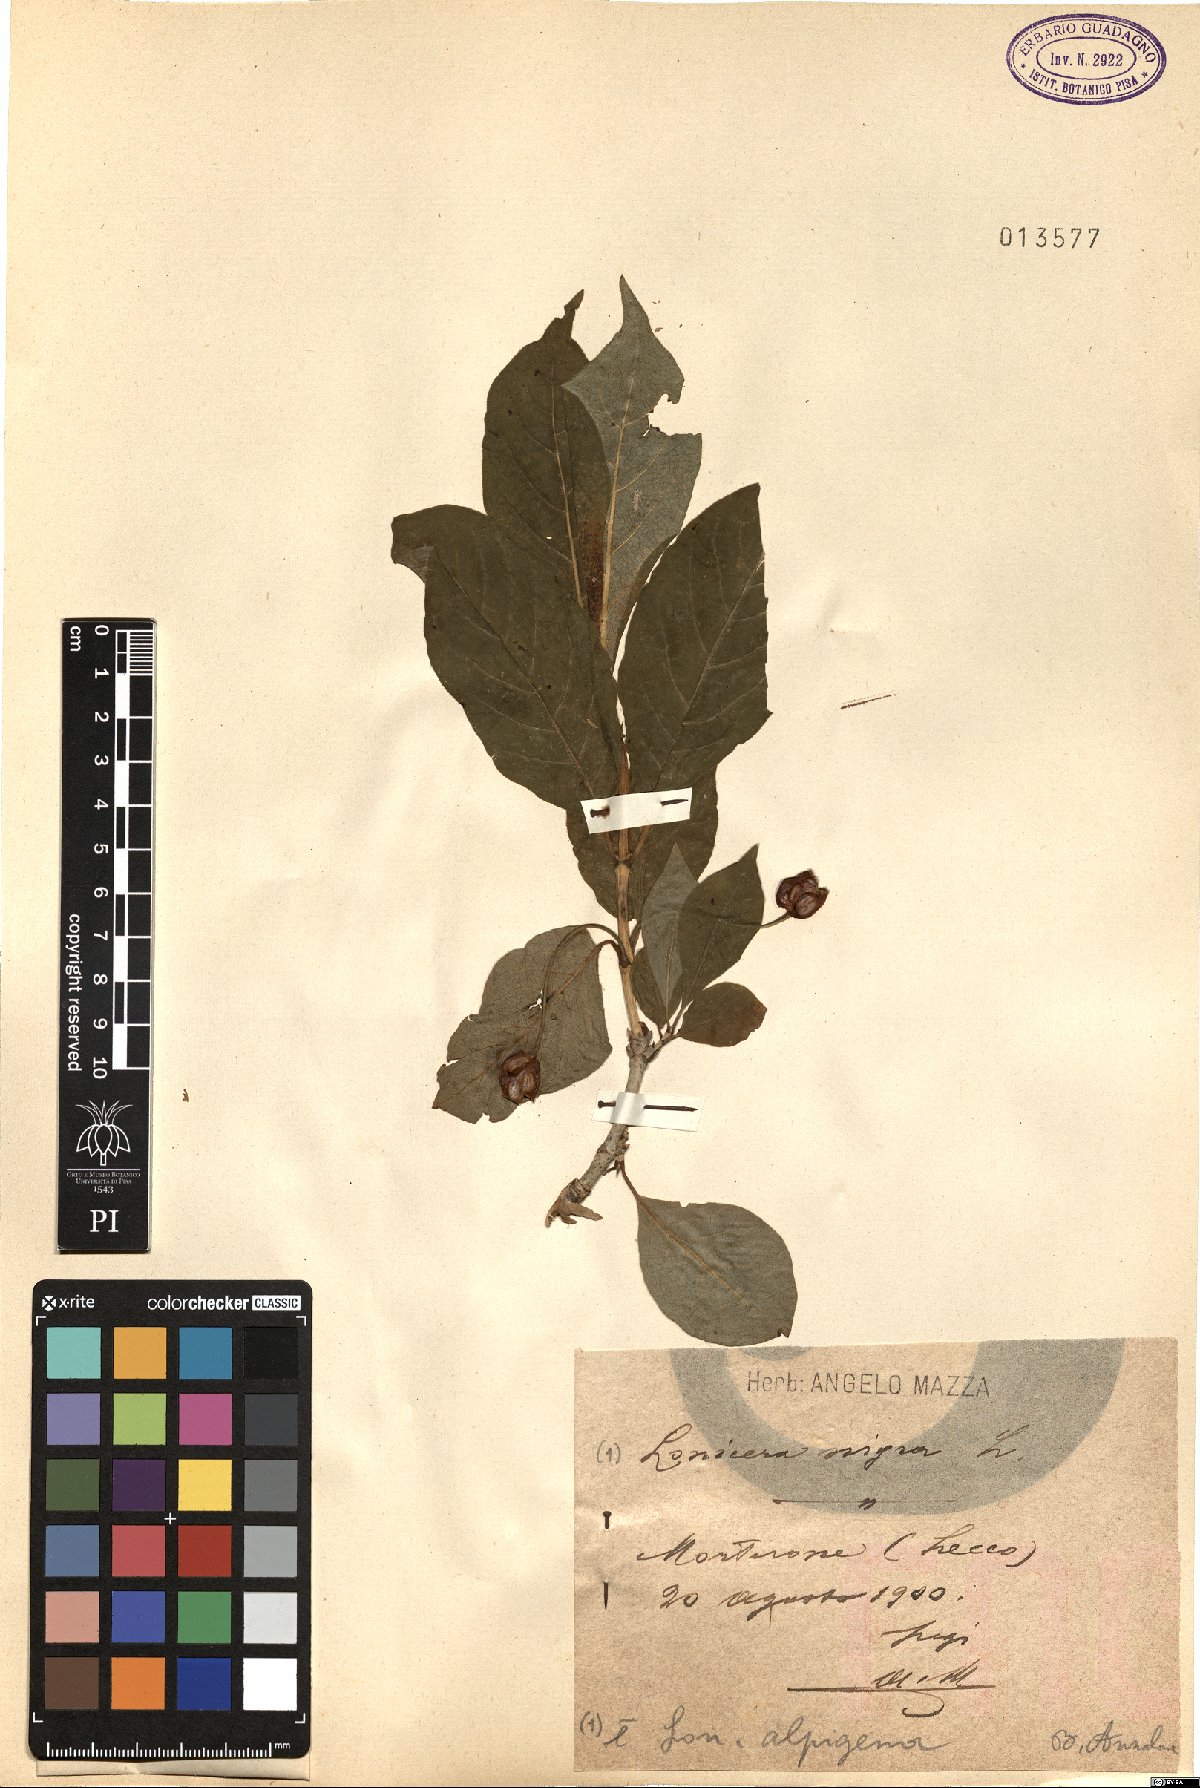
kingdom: Plantae
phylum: Tracheophyta
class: Magnoliopsida
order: Dipsacales
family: Caprifoliaceae
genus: Lonicera
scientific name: Lonicera nigra
